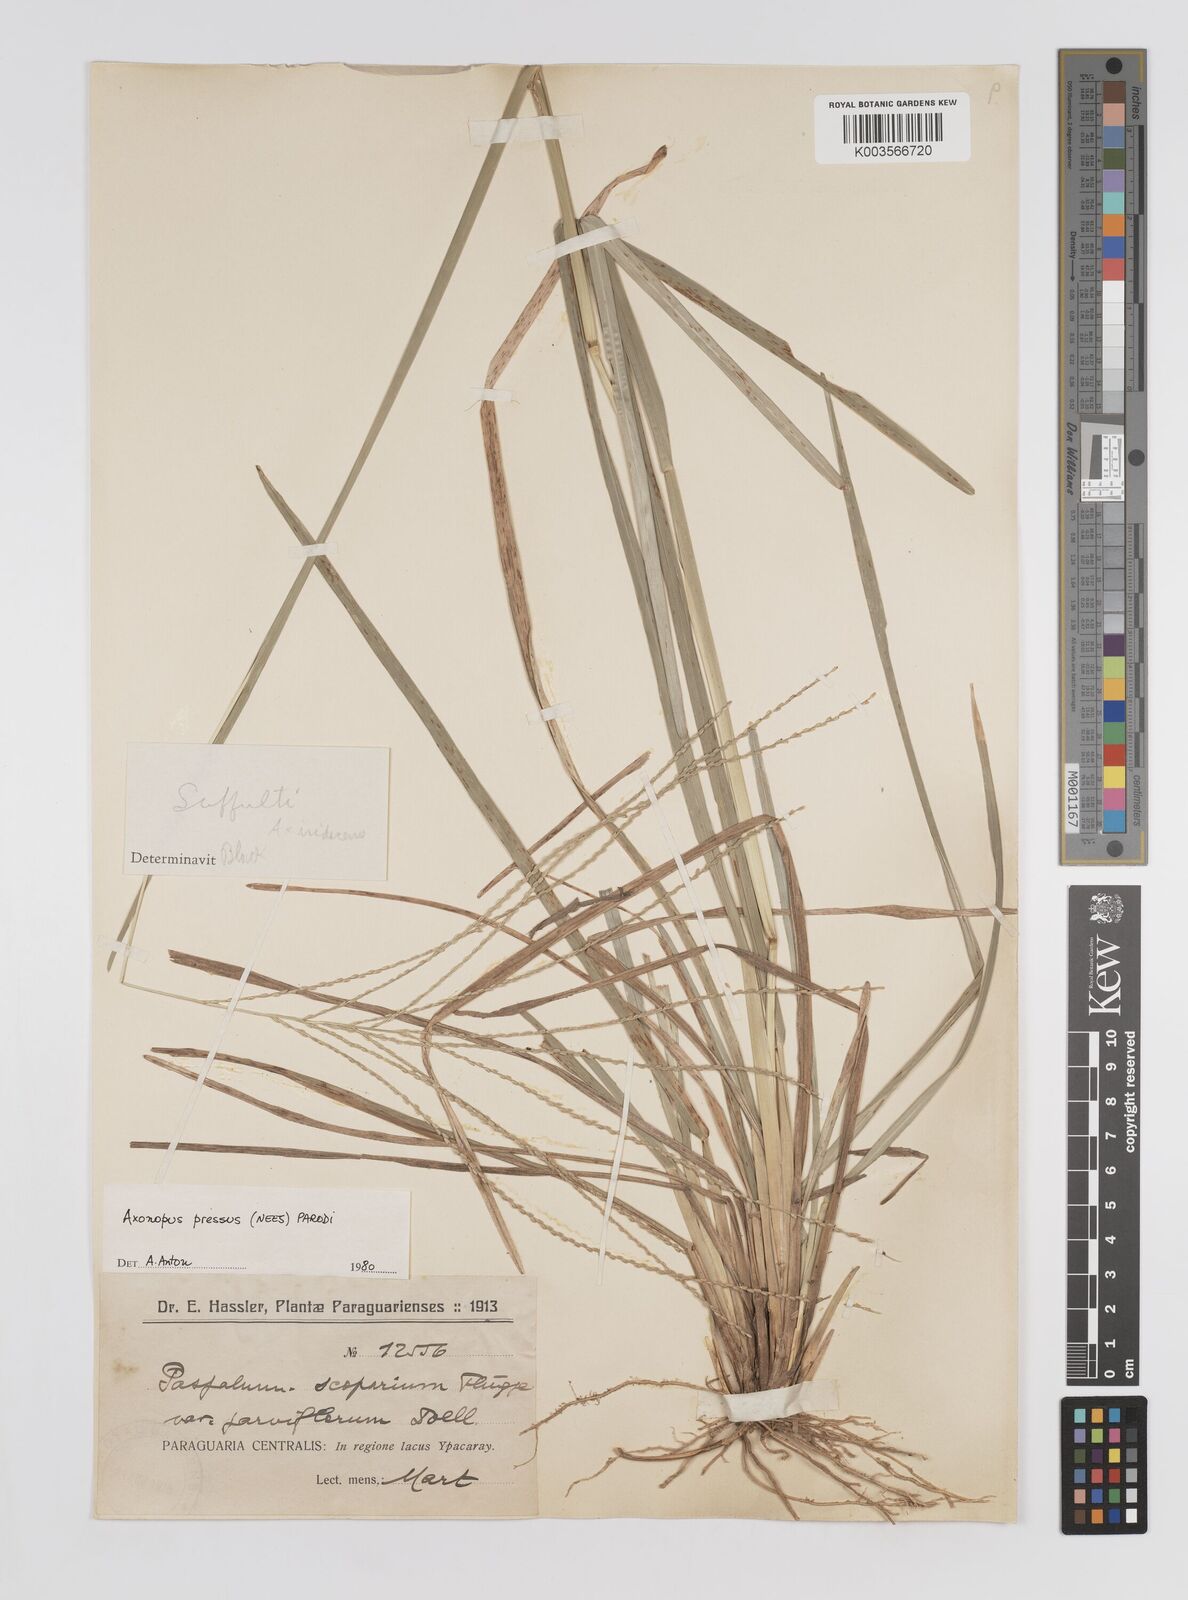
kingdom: Plantae
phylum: Tracheophyta
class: Liliopsida
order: Poales
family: Poaceae
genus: Axonopus
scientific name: Axonopus pressus
